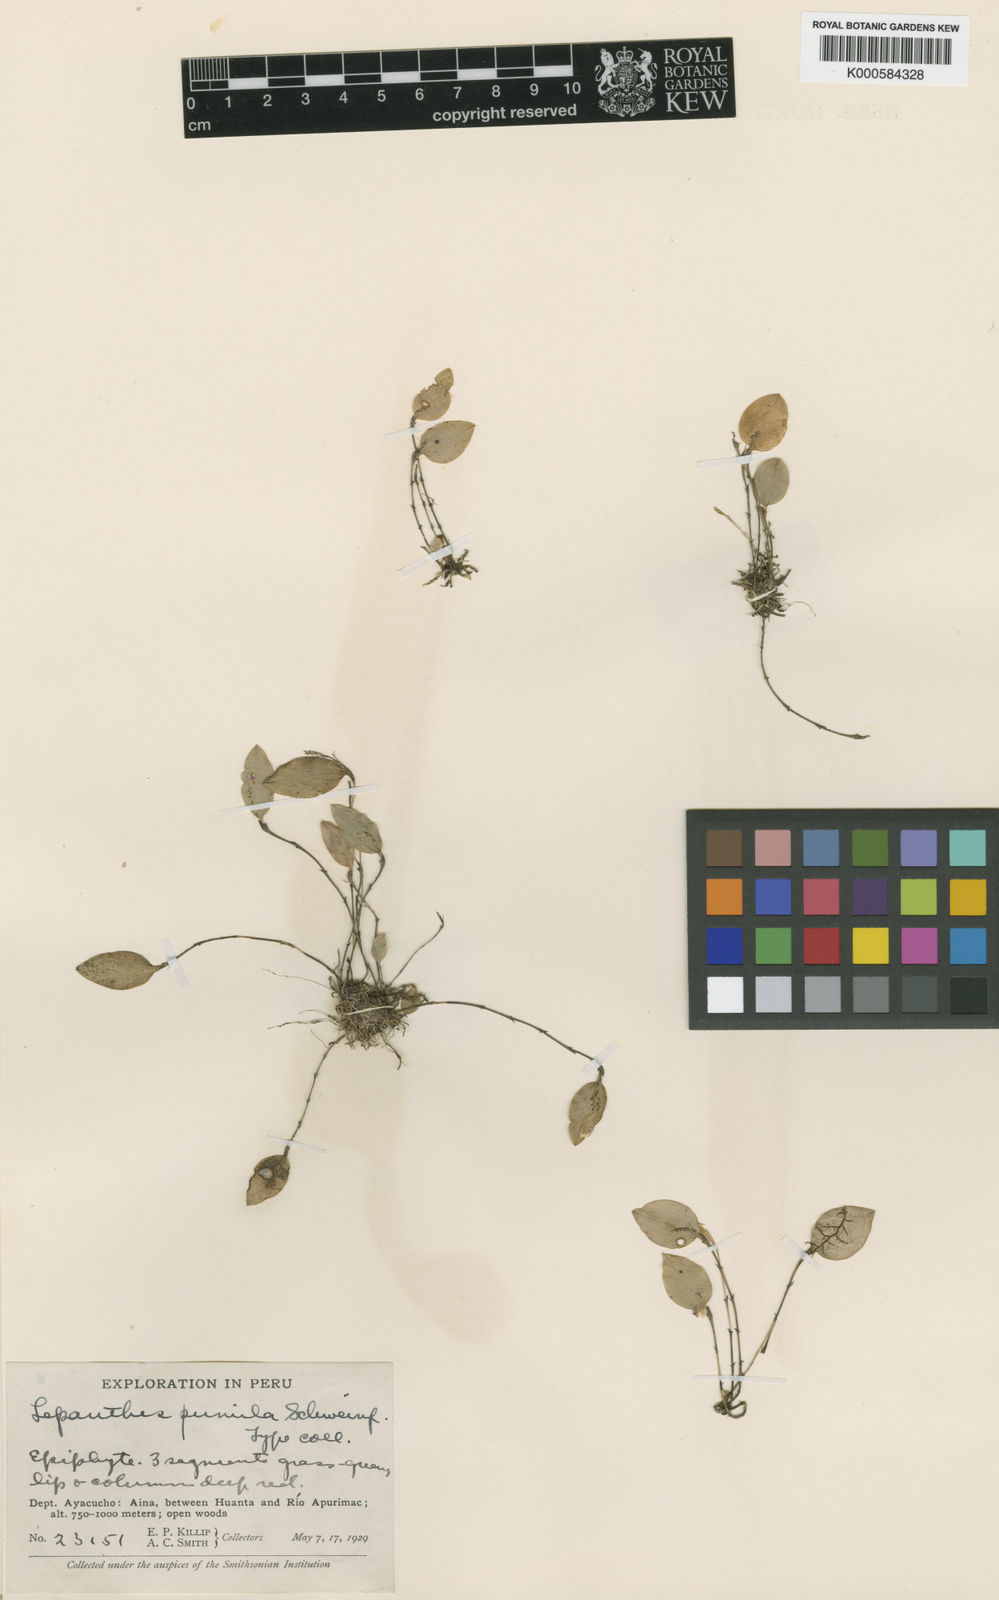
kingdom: Plantae
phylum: Tracheophyta
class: Liliopsida
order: Asparagales
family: Orchidaceae
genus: Lepanthes
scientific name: Lepanthes pumila
